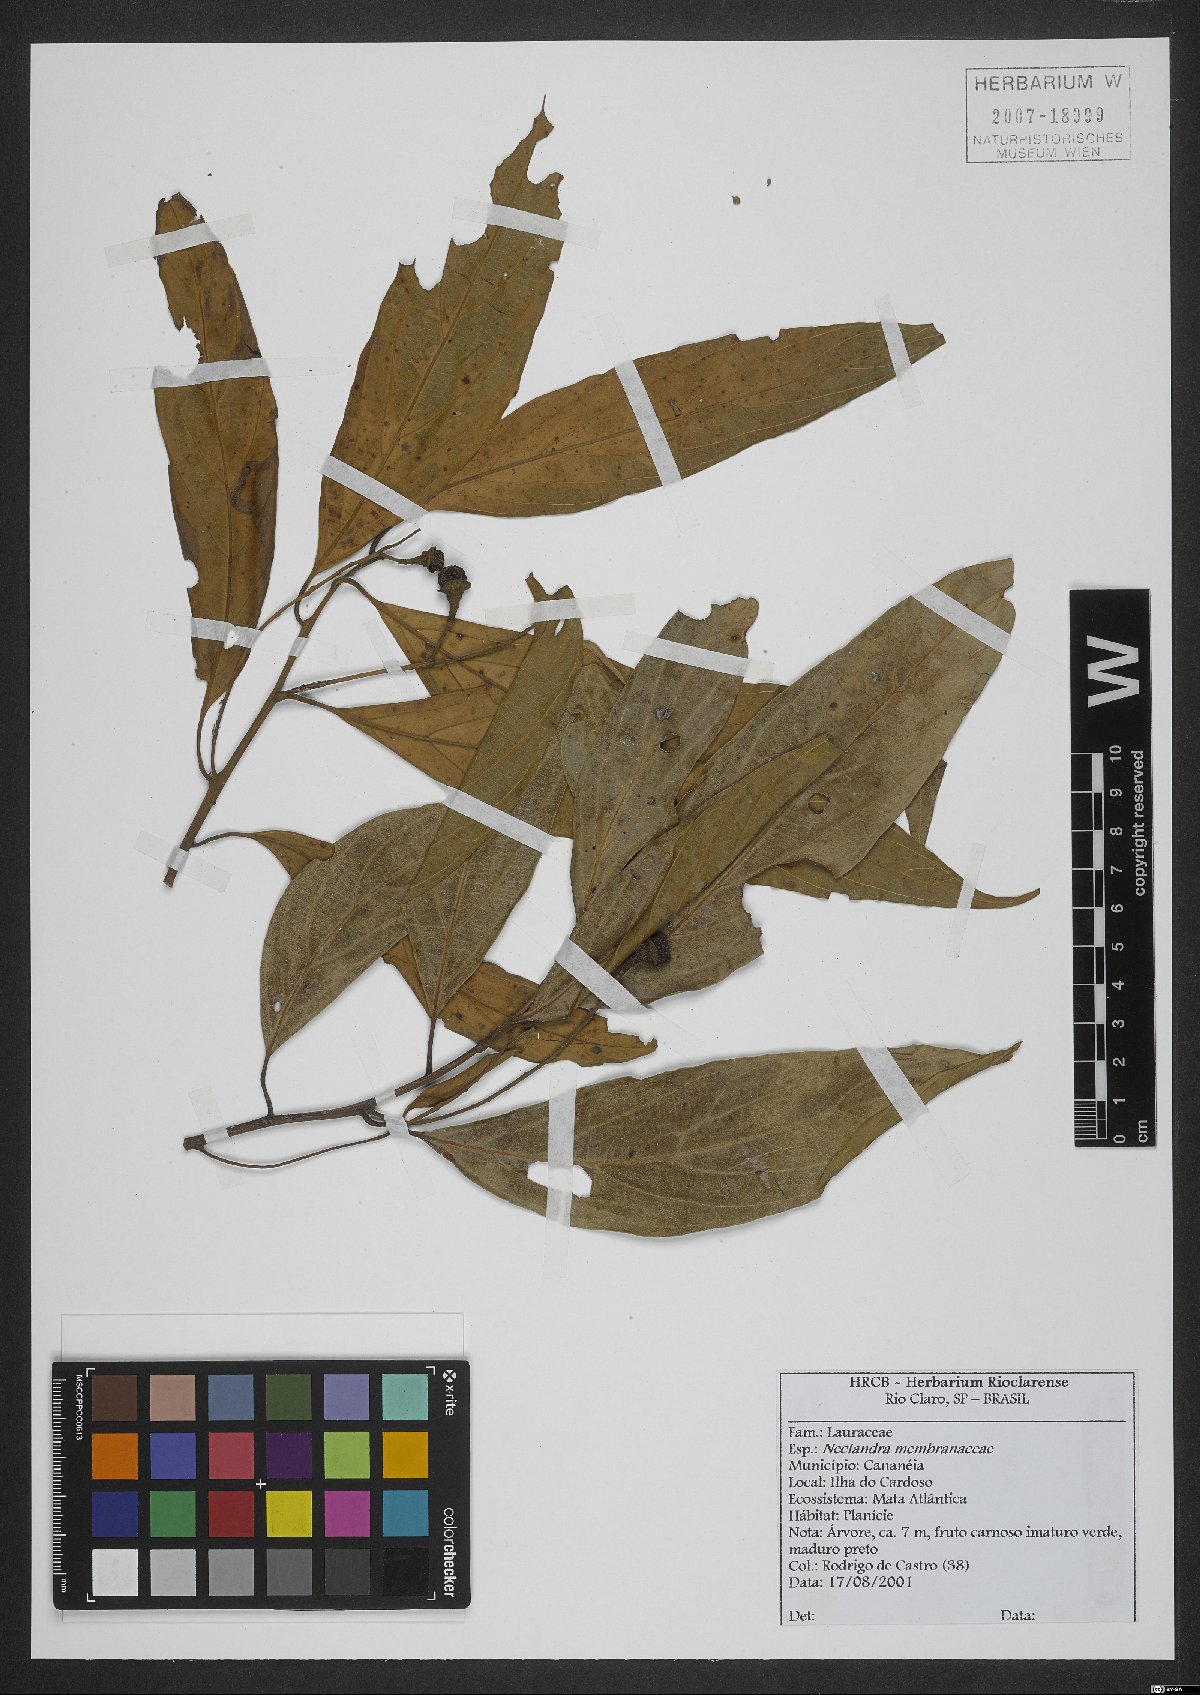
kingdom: Plantae
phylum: Tracheophyta
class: Magnoliopsida
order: Laurales
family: Lauraceae
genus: Nectandra
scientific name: Nectandra membranacea
